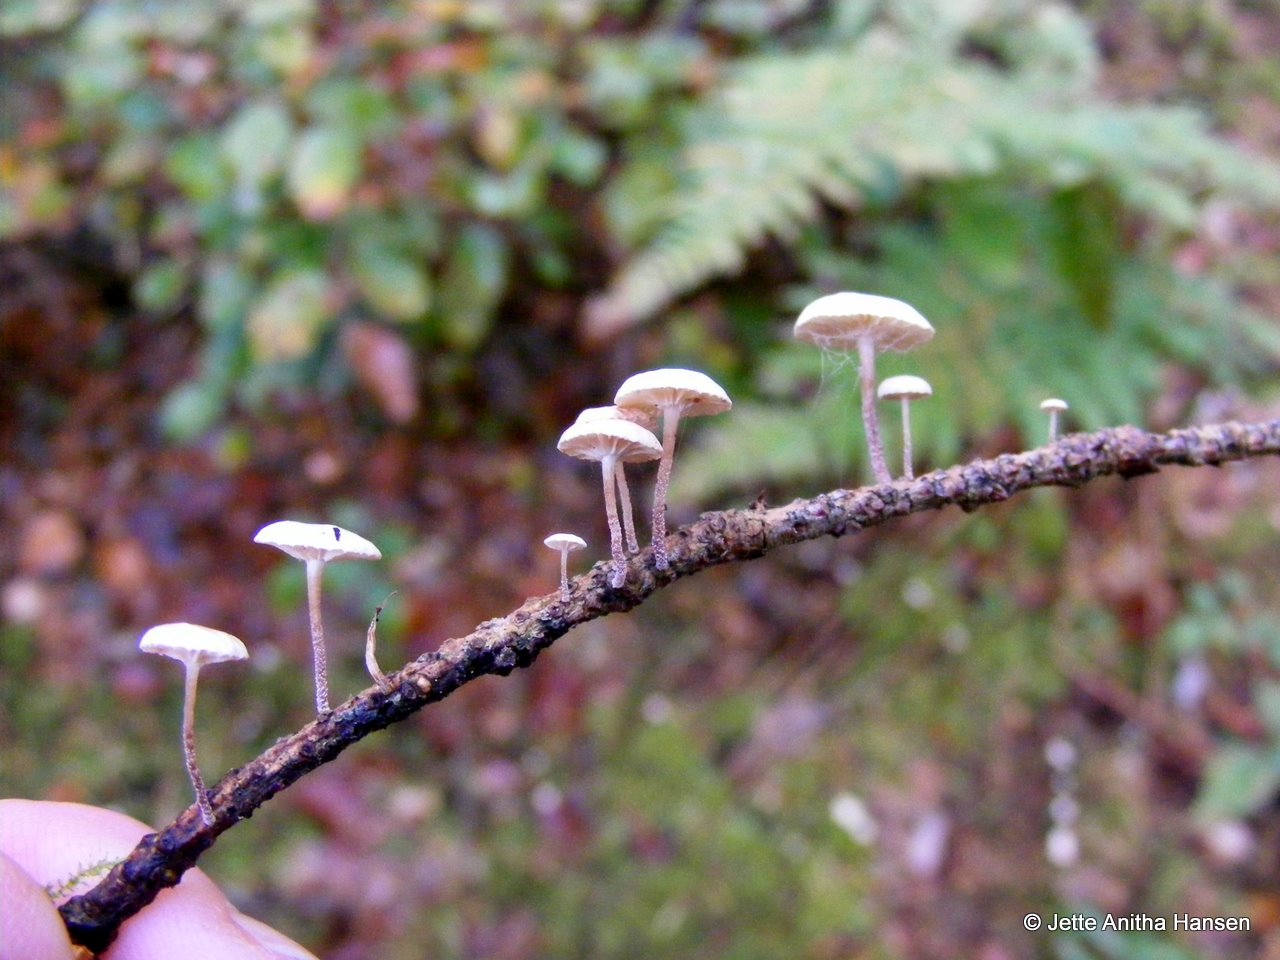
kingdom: Fungi
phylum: Basidiomycota
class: Agaricomycetes
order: Agaricales
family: Omphalotaceae
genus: Collybiopsis
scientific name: Collybiopsis ramealis
